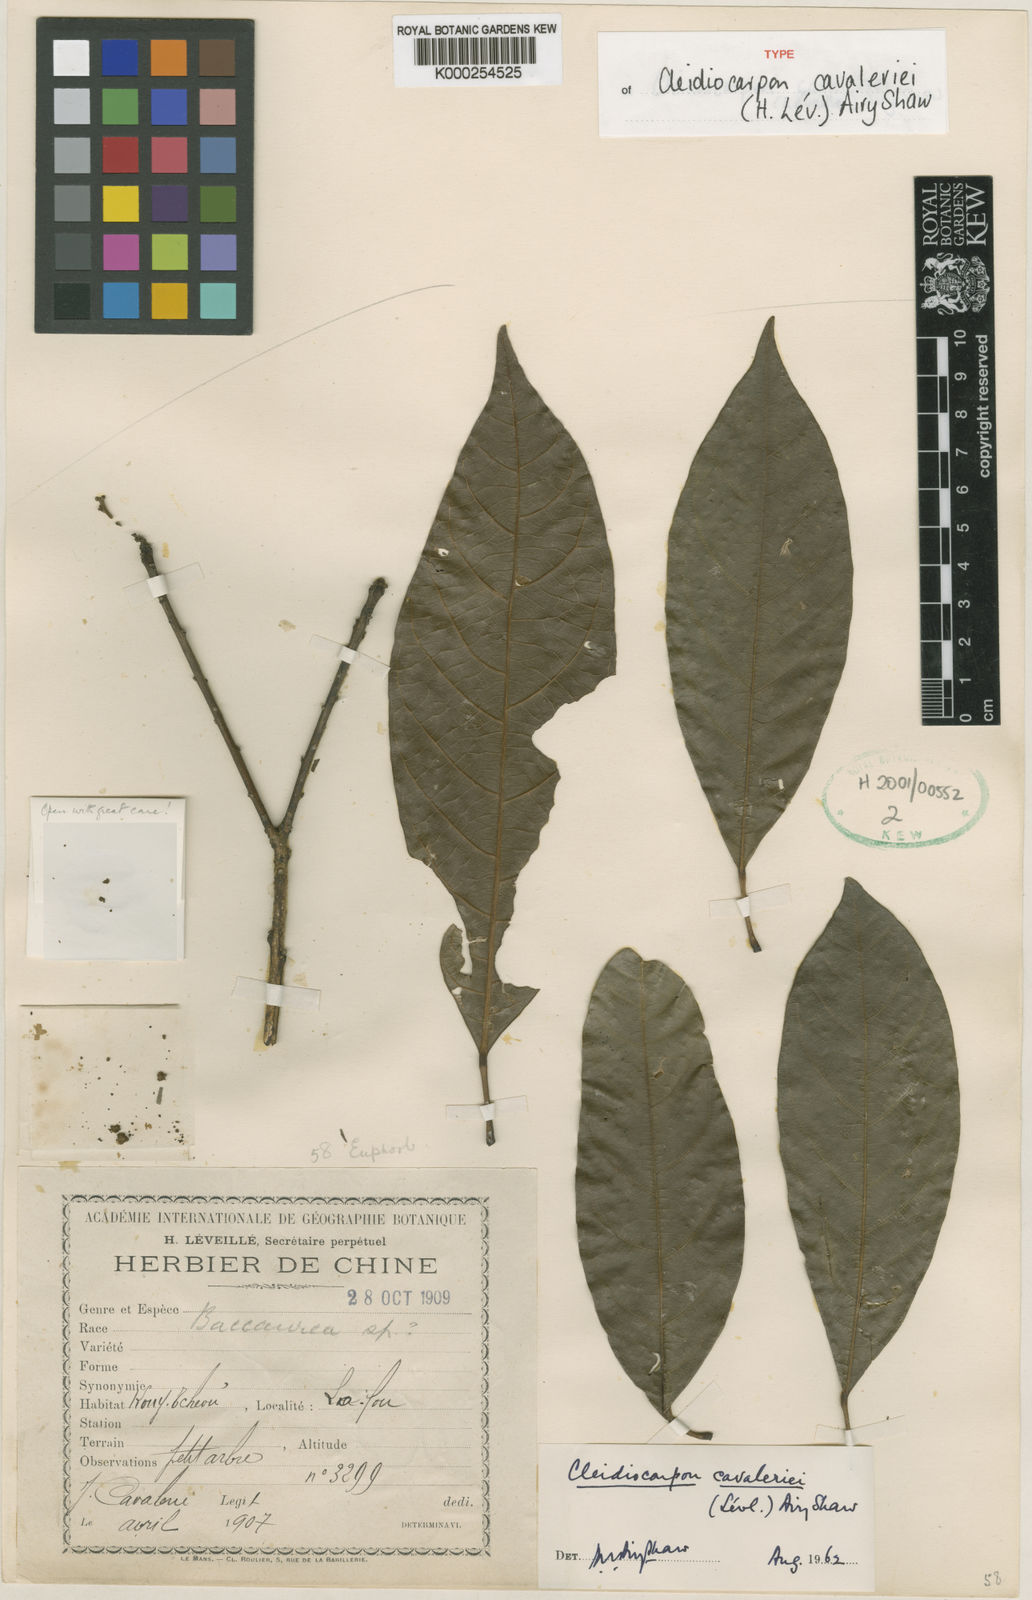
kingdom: Plantae
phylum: Tracheophyta
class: Magnoliopsida
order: Malpighiales
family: Euphorbiaceae
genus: Cleidiocarpon
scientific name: Cleidiocarpon
